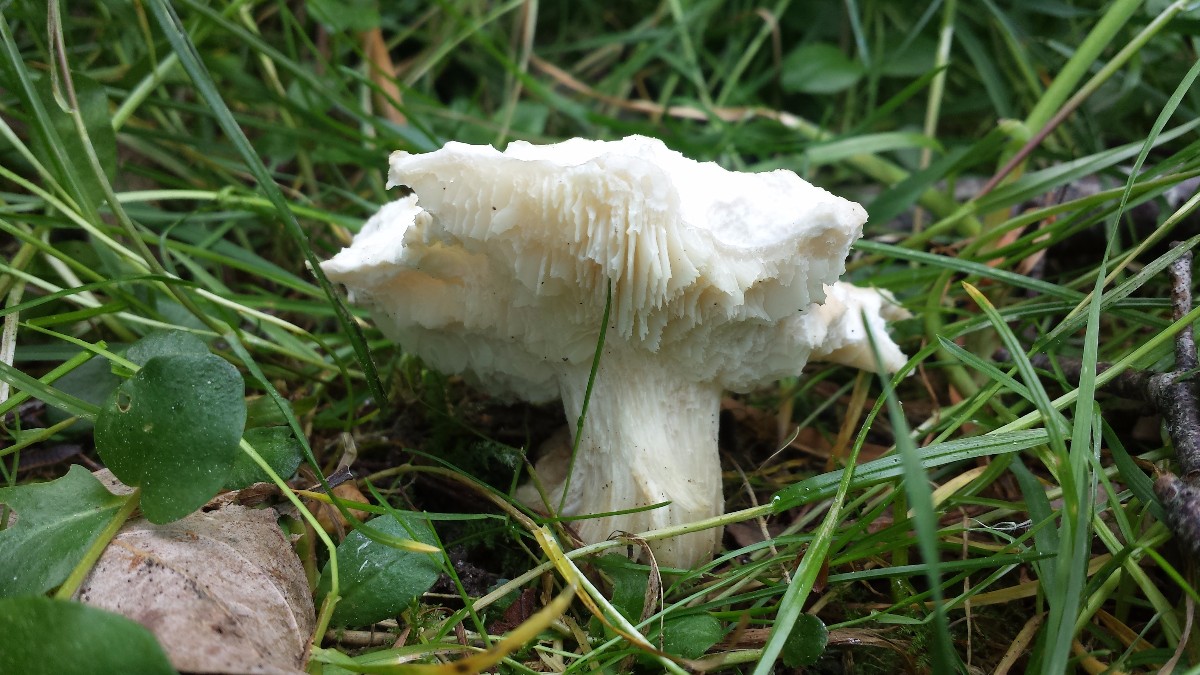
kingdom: Fungi
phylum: Basidiomycota
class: Agaricomycetes
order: Agaricales
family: Lyophyllaceae
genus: Calocybe
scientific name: Calocybe gambosa
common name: vårmusseron
